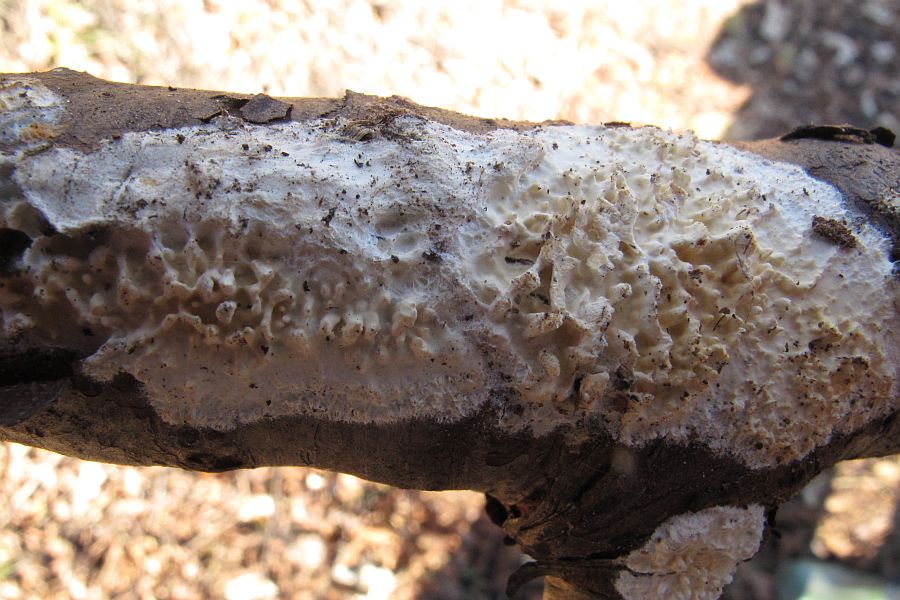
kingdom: Fungi
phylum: Basidiomycota
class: Agaricomycetes
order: Hymenochaetales
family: Schizoporaceae
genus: Xylodon
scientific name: Xylodon radula
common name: grovtandet kalkskind
